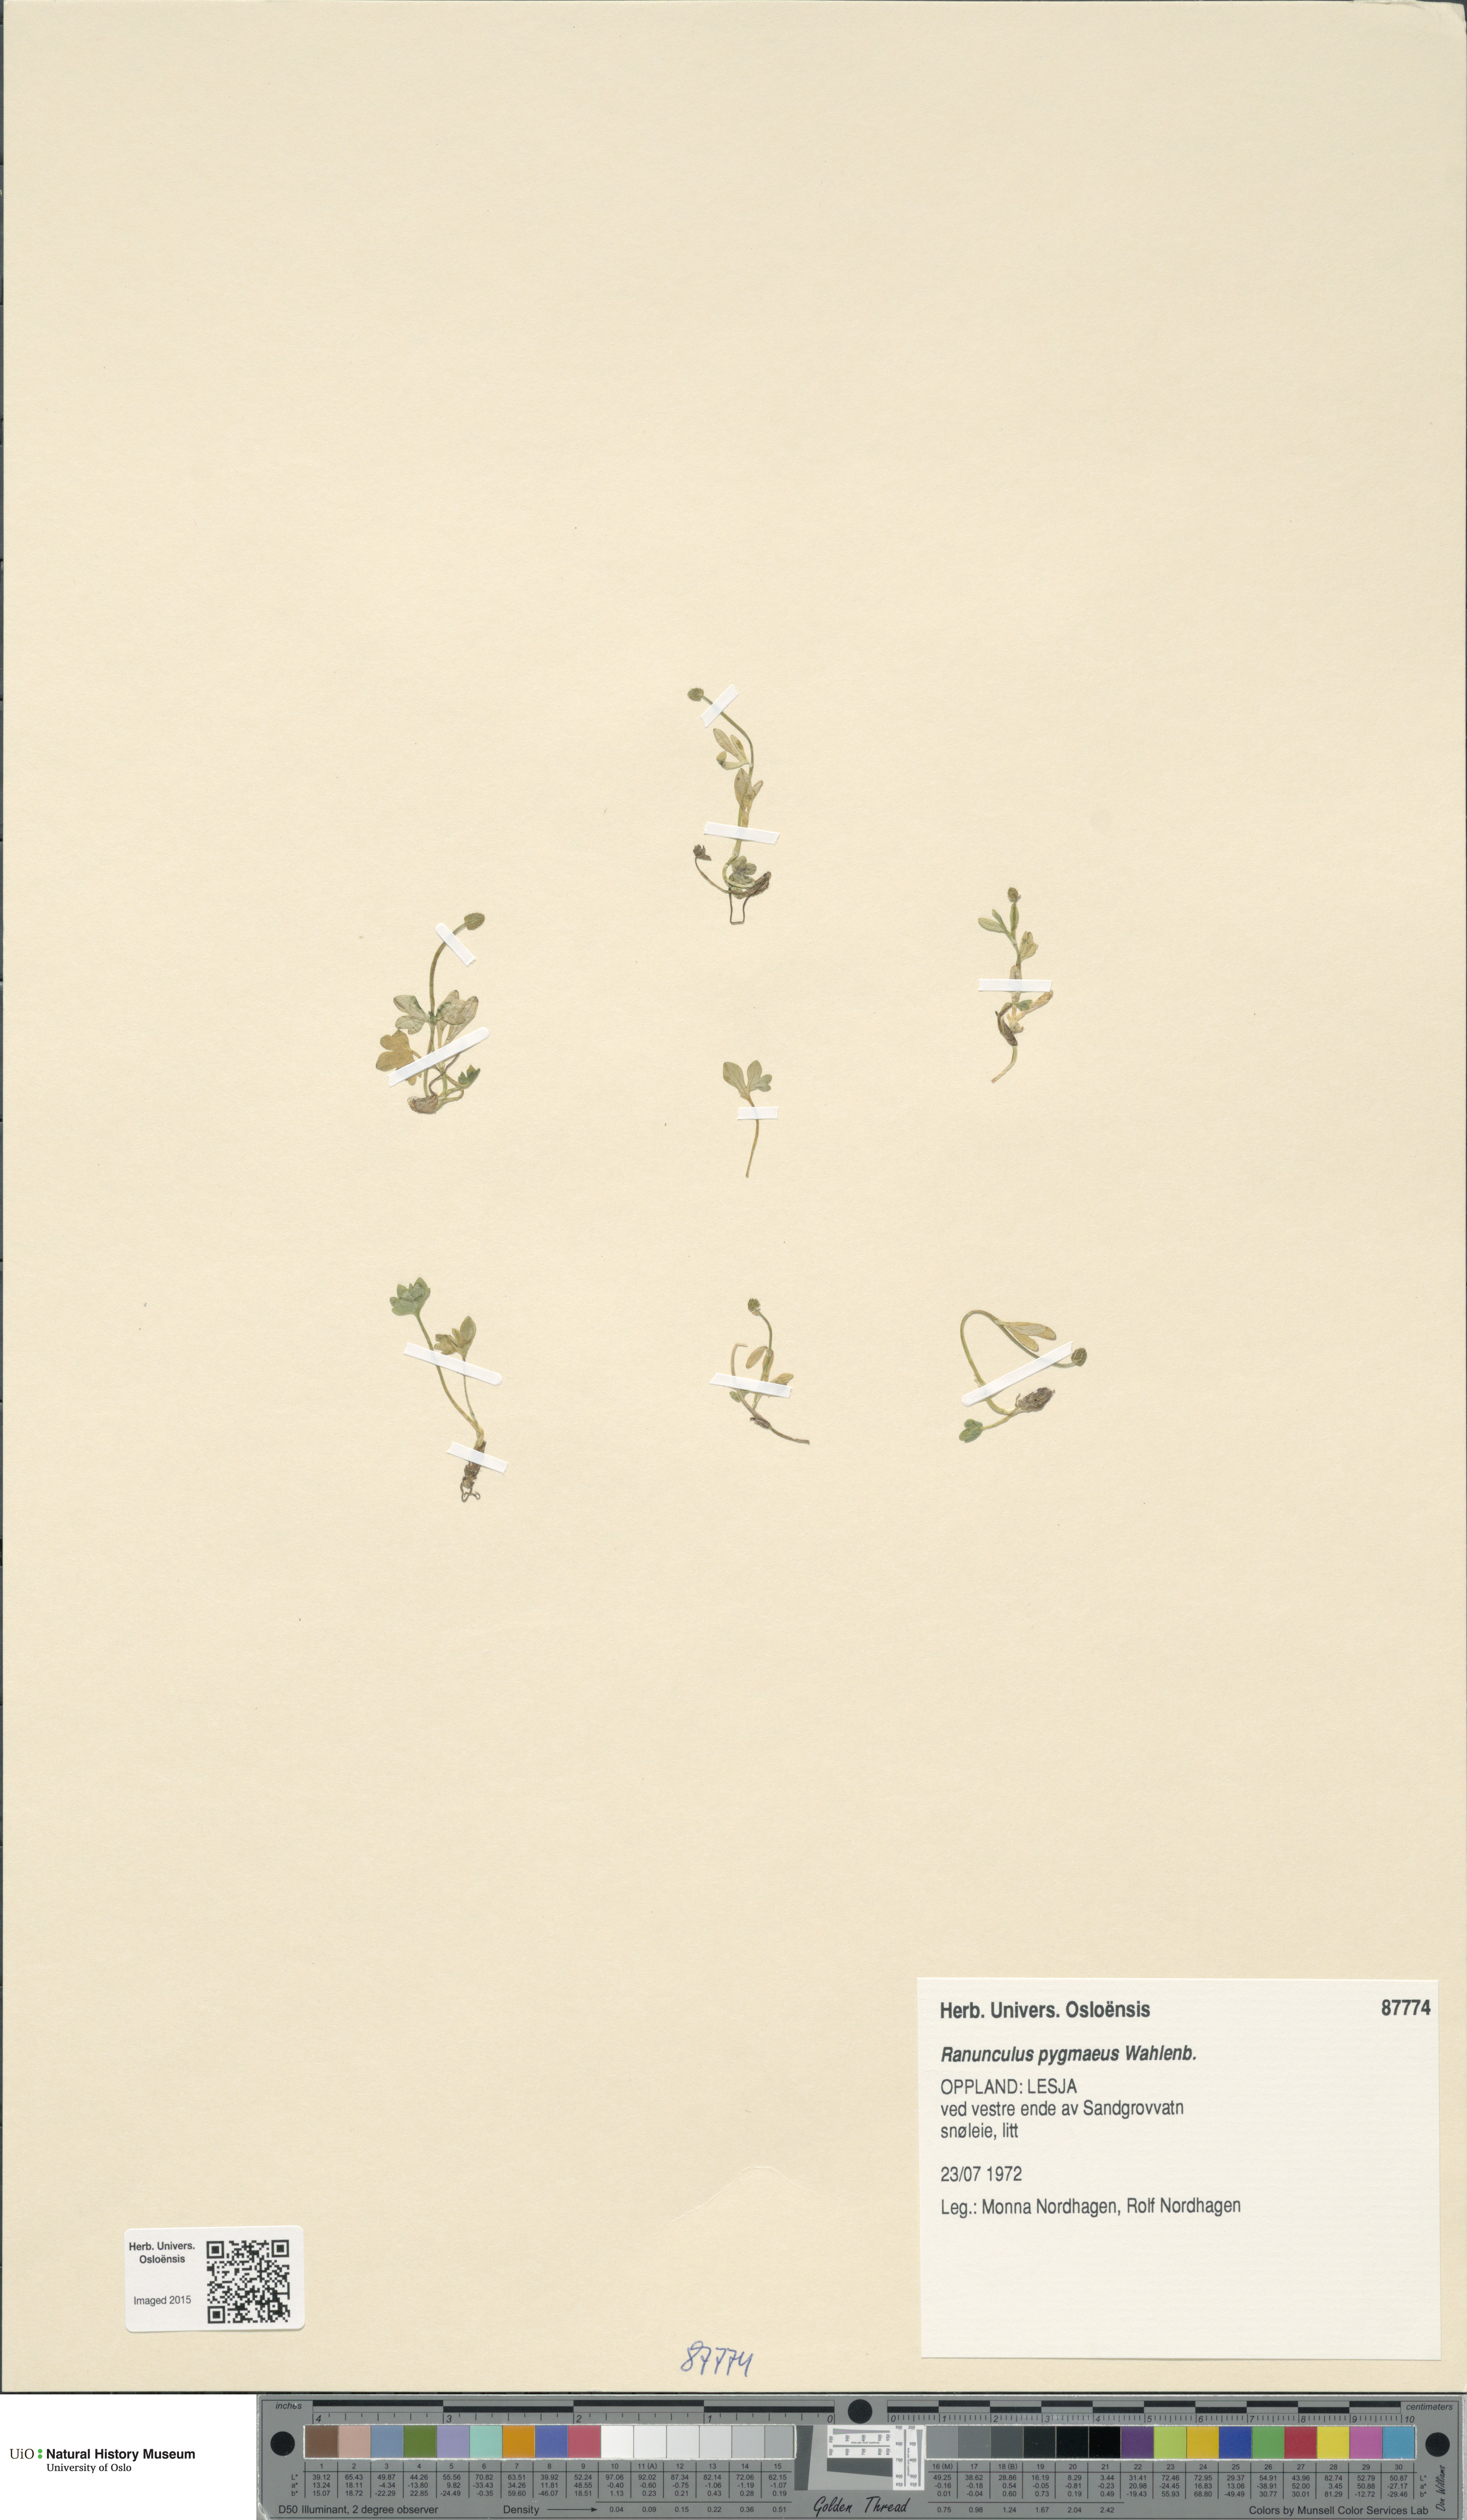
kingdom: Plantae
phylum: Tracheophyta
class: Magnoliopsida
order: Ranunculales
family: Ranunculaceae
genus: Ranunculus
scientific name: Ranunculus pygmaeus
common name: Dwarf buttercup
